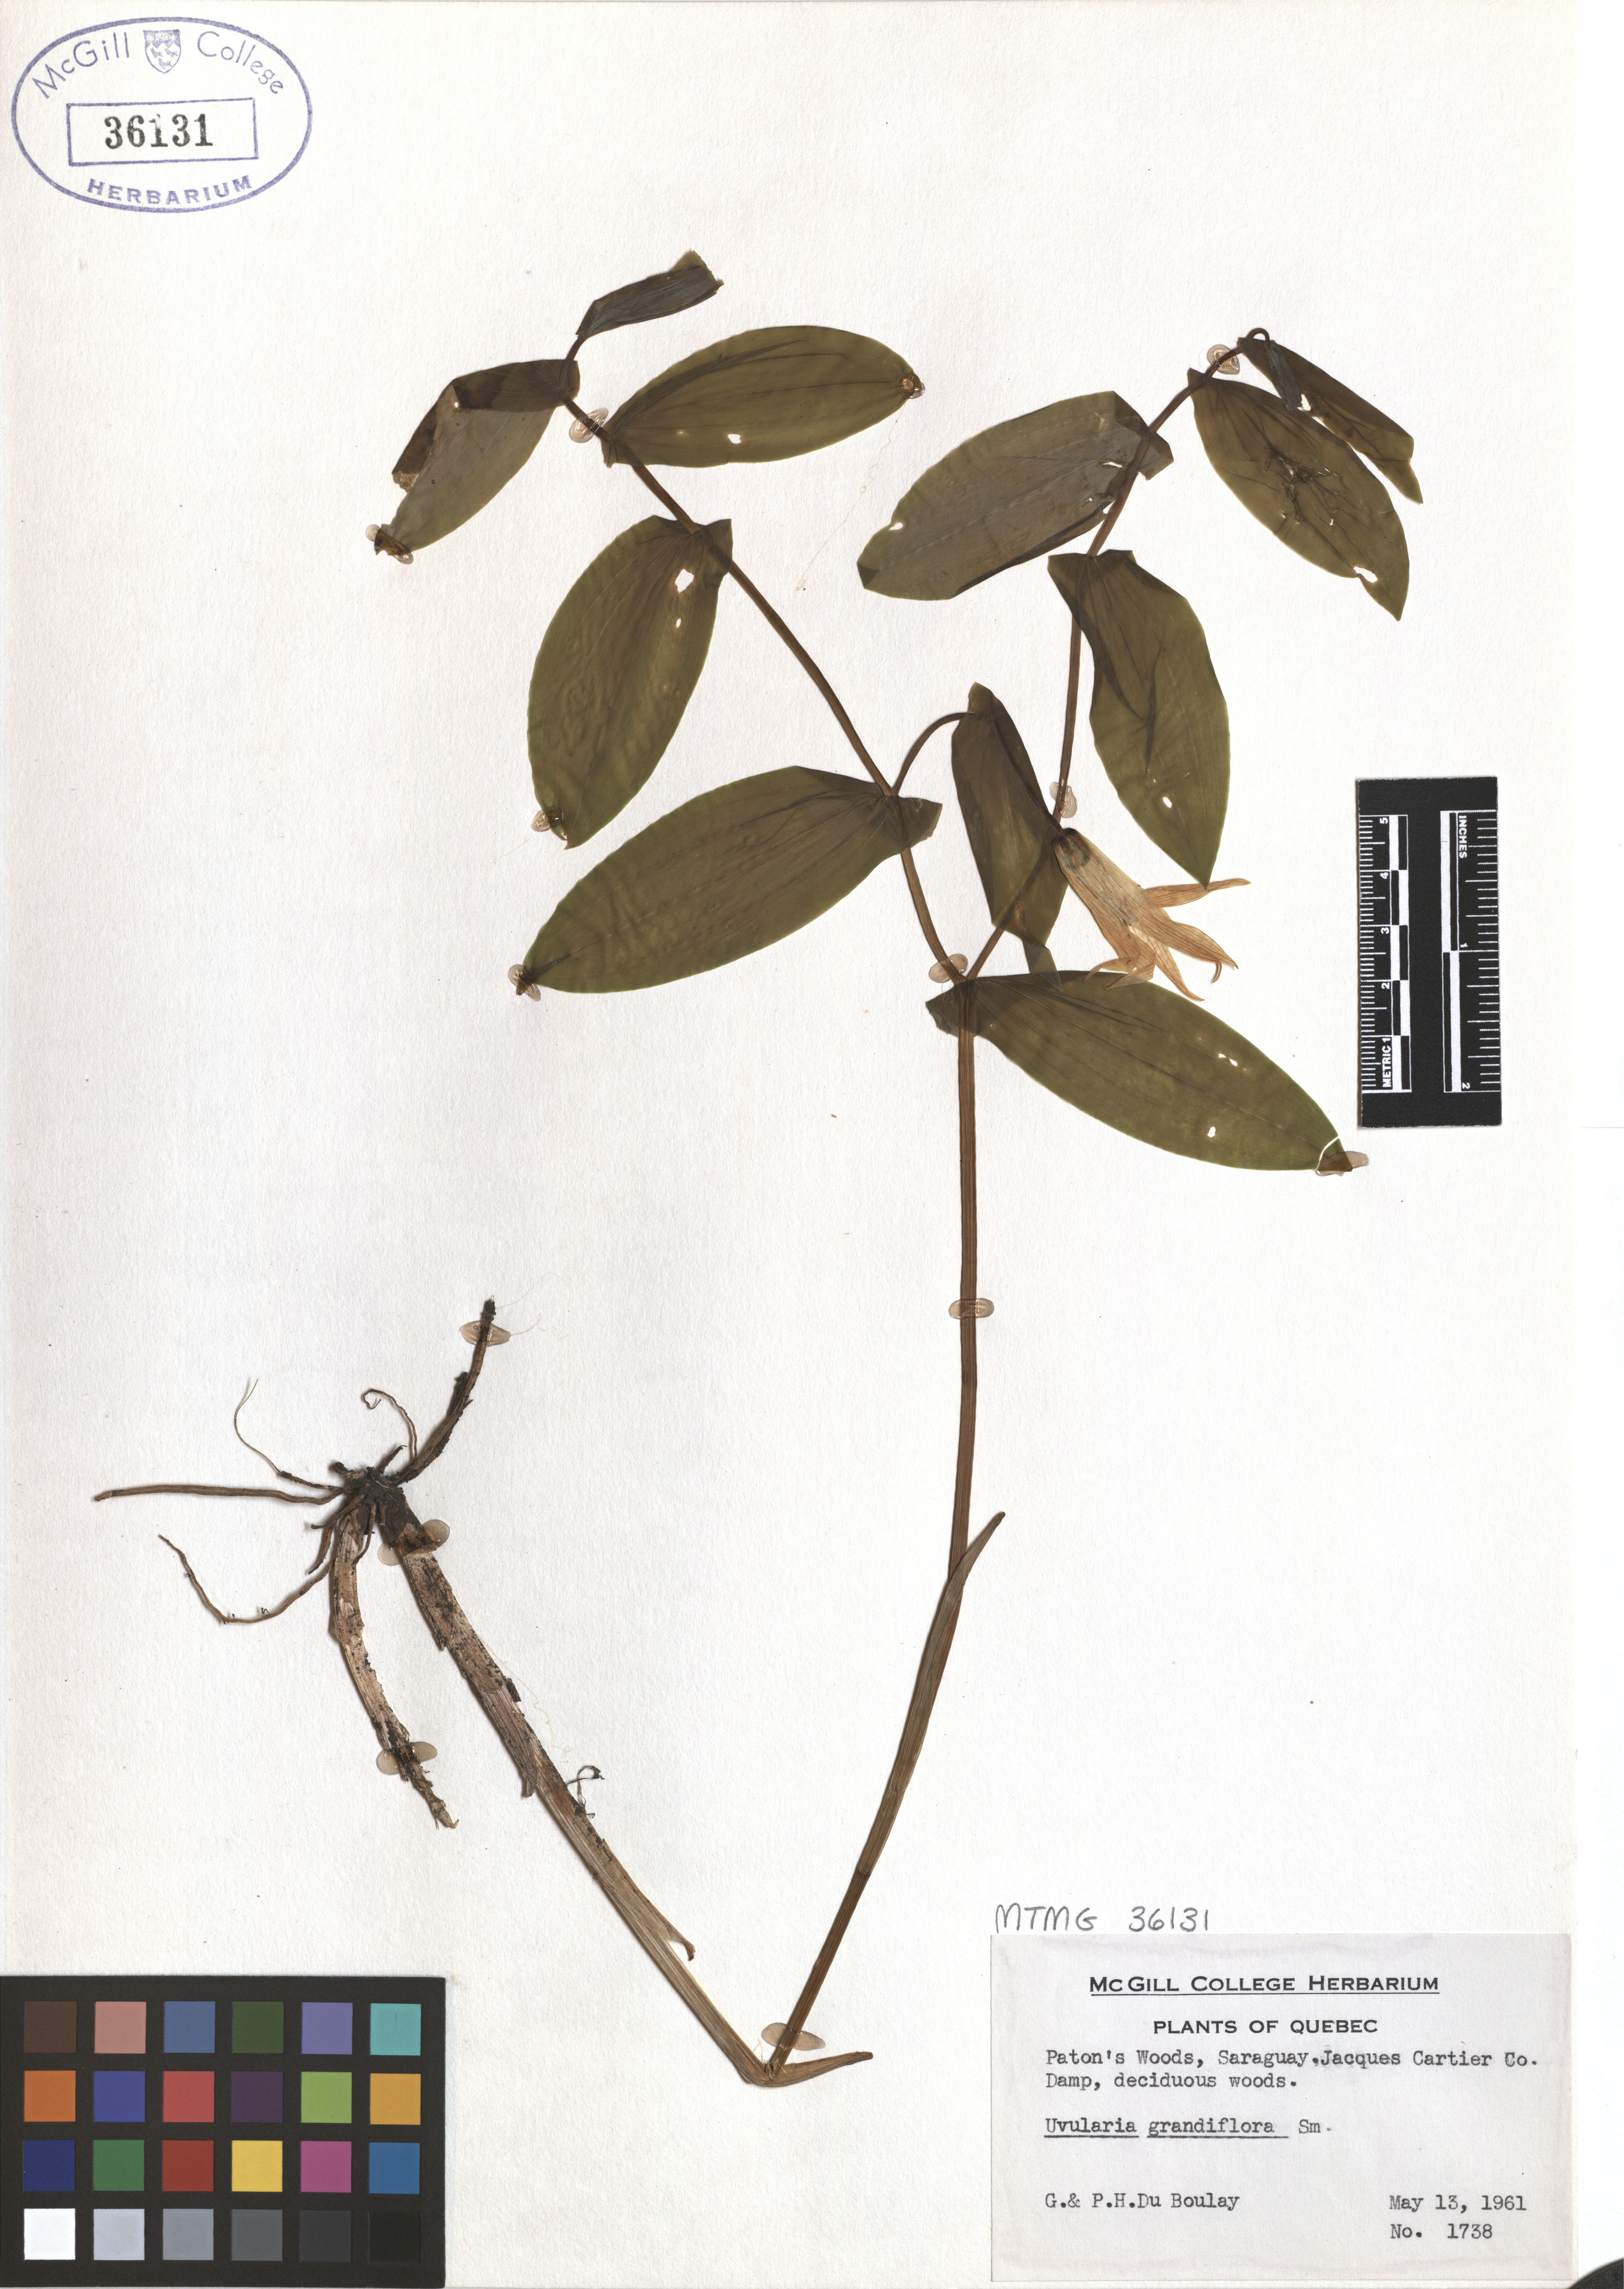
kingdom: Plantae
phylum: Tracheophyta
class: Liliopsida
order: Liliales
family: Colchicaceae
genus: Uvularia
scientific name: Uvularia grandiflora
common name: Bellwort
